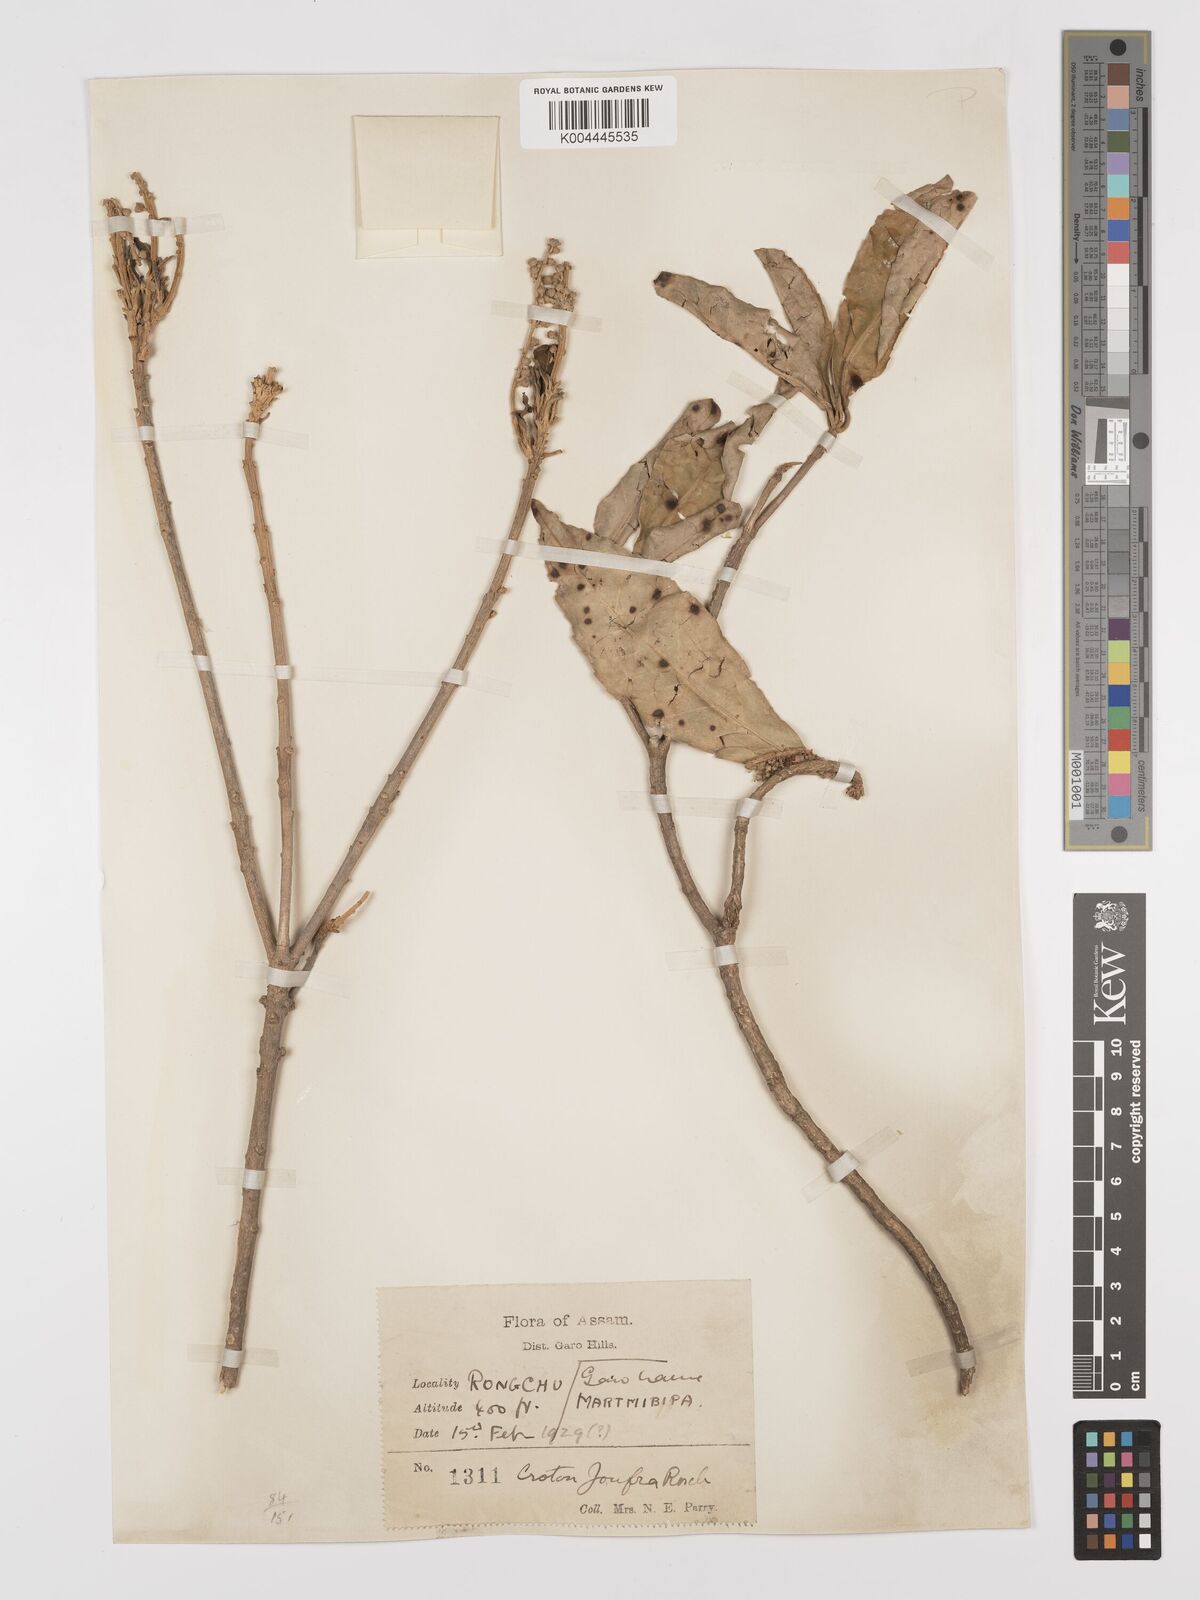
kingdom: Plantae
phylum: Tracheophyta
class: Magnoliopsida
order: Malpighiales
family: Euphorbiaceae
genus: Croton
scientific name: Croton joufra
